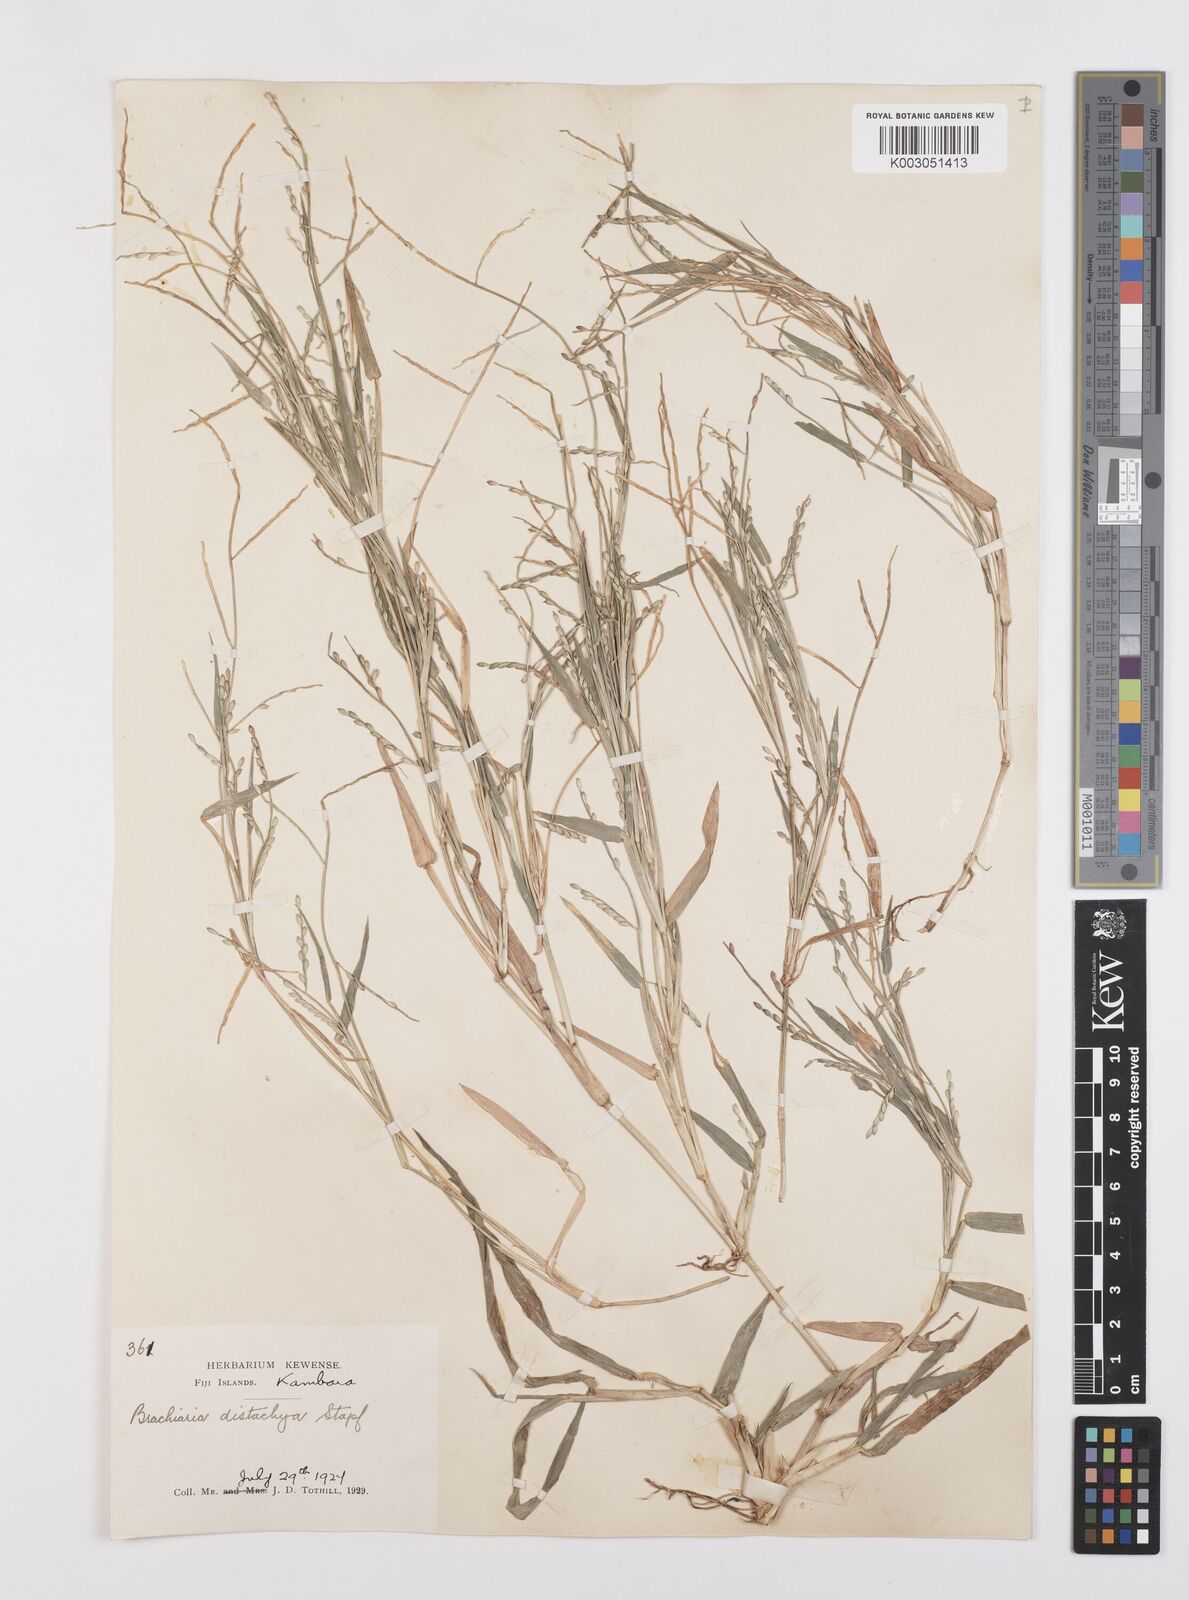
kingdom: Plantae
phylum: Tracheophyta
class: Liliopsida
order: Poales
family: Poaceae
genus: Urochloa
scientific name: Urochloa subquadripara
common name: Armgrass millet
